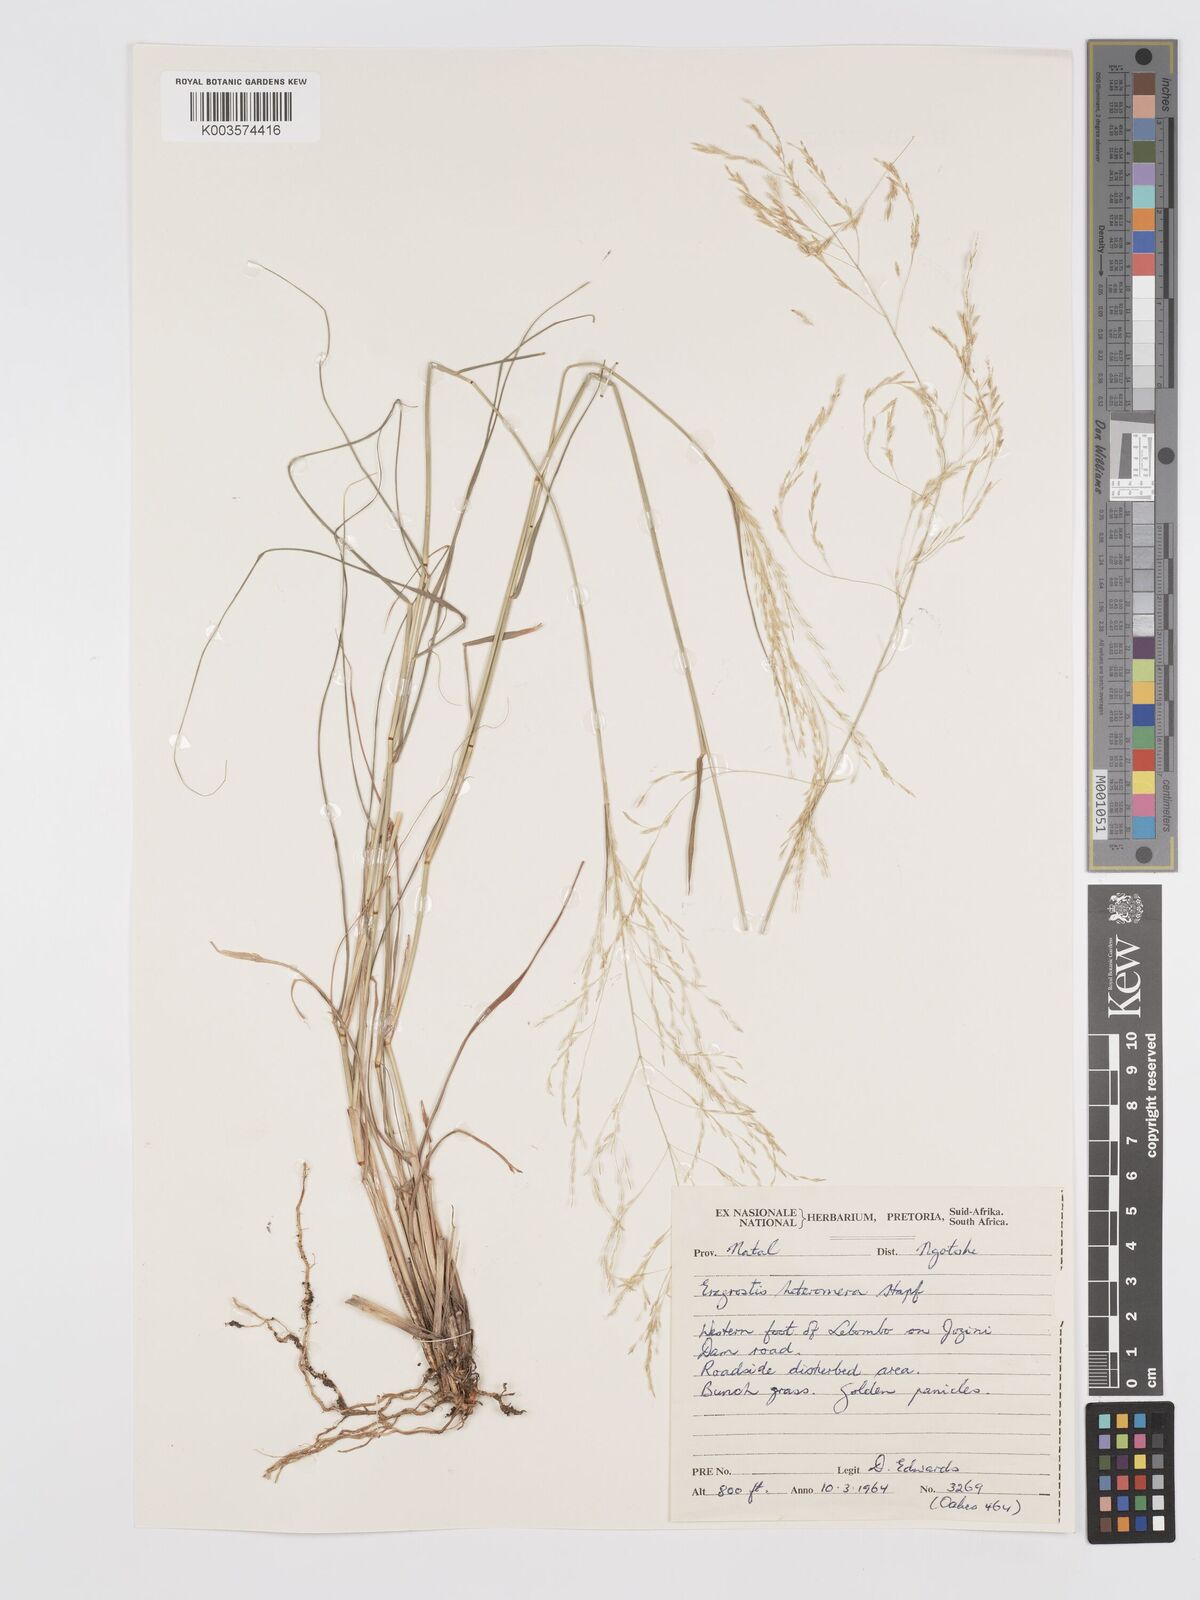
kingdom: Plantae
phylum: Tracheophyta
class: Liliopsida
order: Poales
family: Poaceae
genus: Eragrostis
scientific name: Eragrostis heteromera
